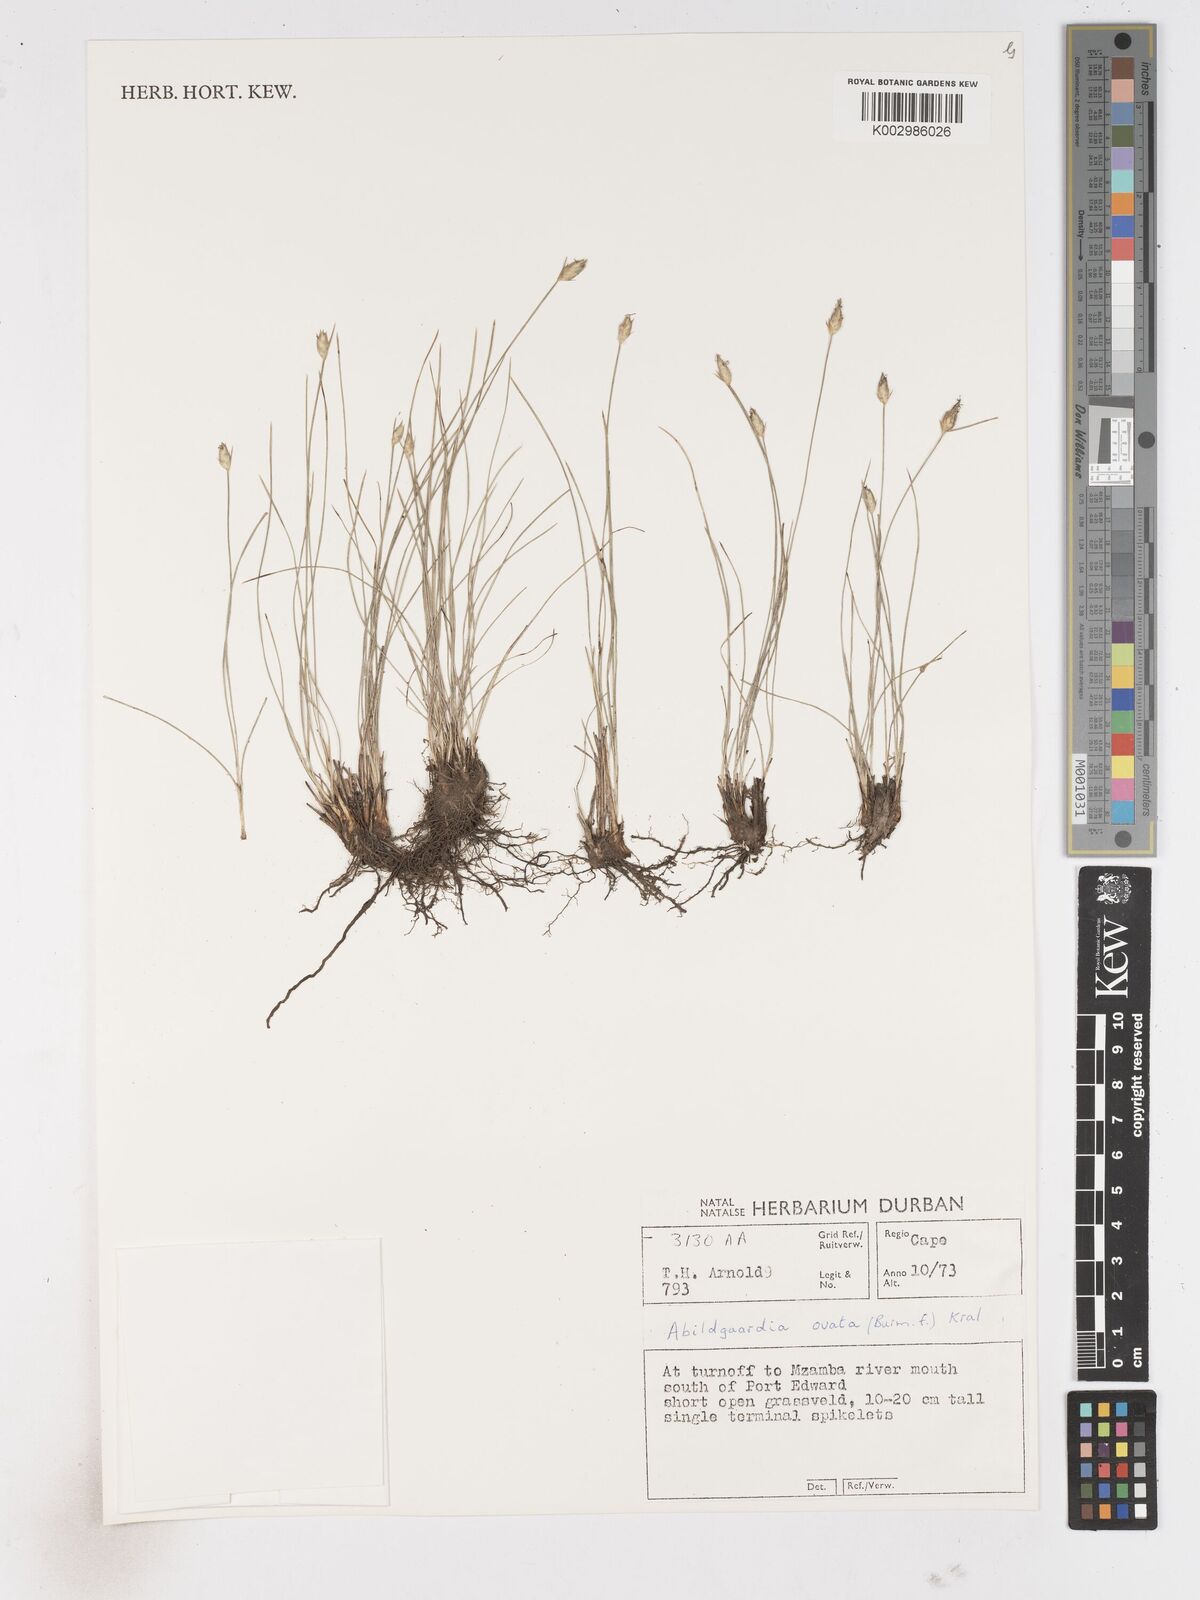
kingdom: Plantae
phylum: Tracheophyta
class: Liliopsida
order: Poales
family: Cyperaceae
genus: Abildgaardia
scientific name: Abildgaardia ovata
